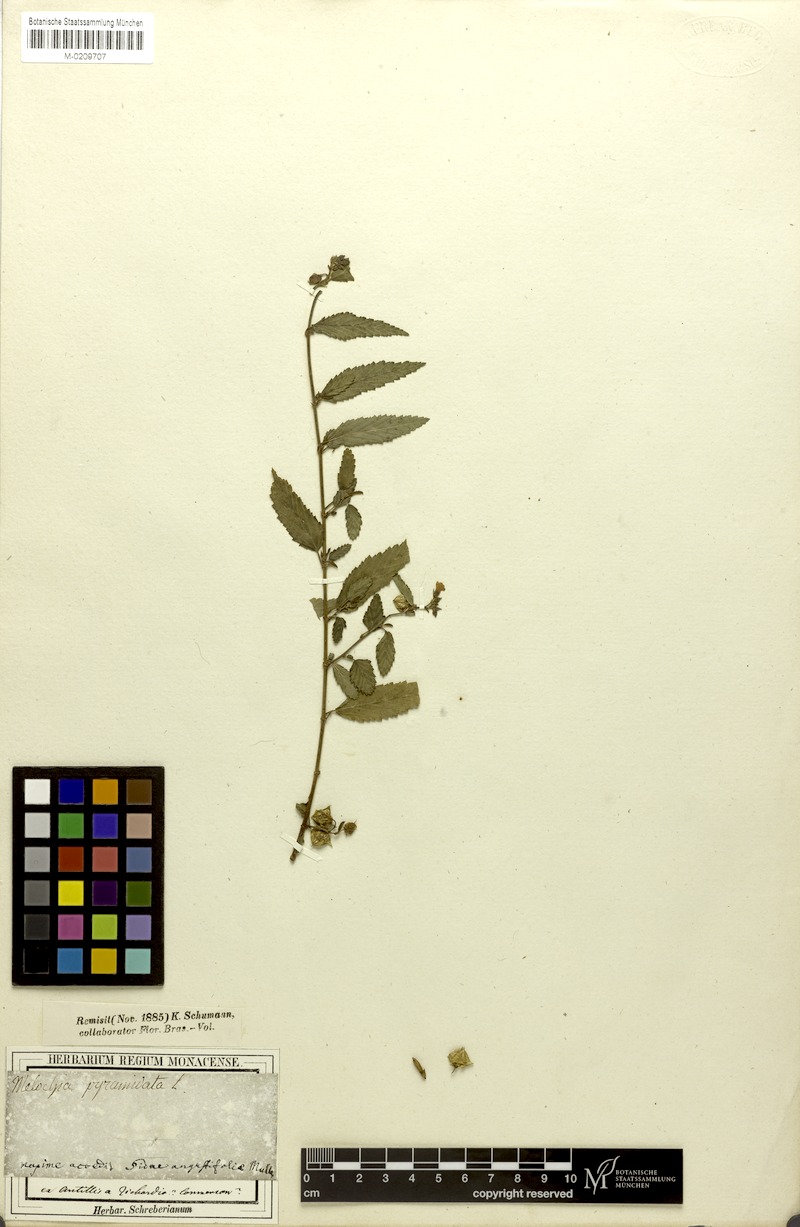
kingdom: Plantae
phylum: Tracheophyta
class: Magnoliopsida
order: Malvales
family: Malvaceae
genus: Melochia
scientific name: Melochia pyramidata
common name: Pyramidflower
